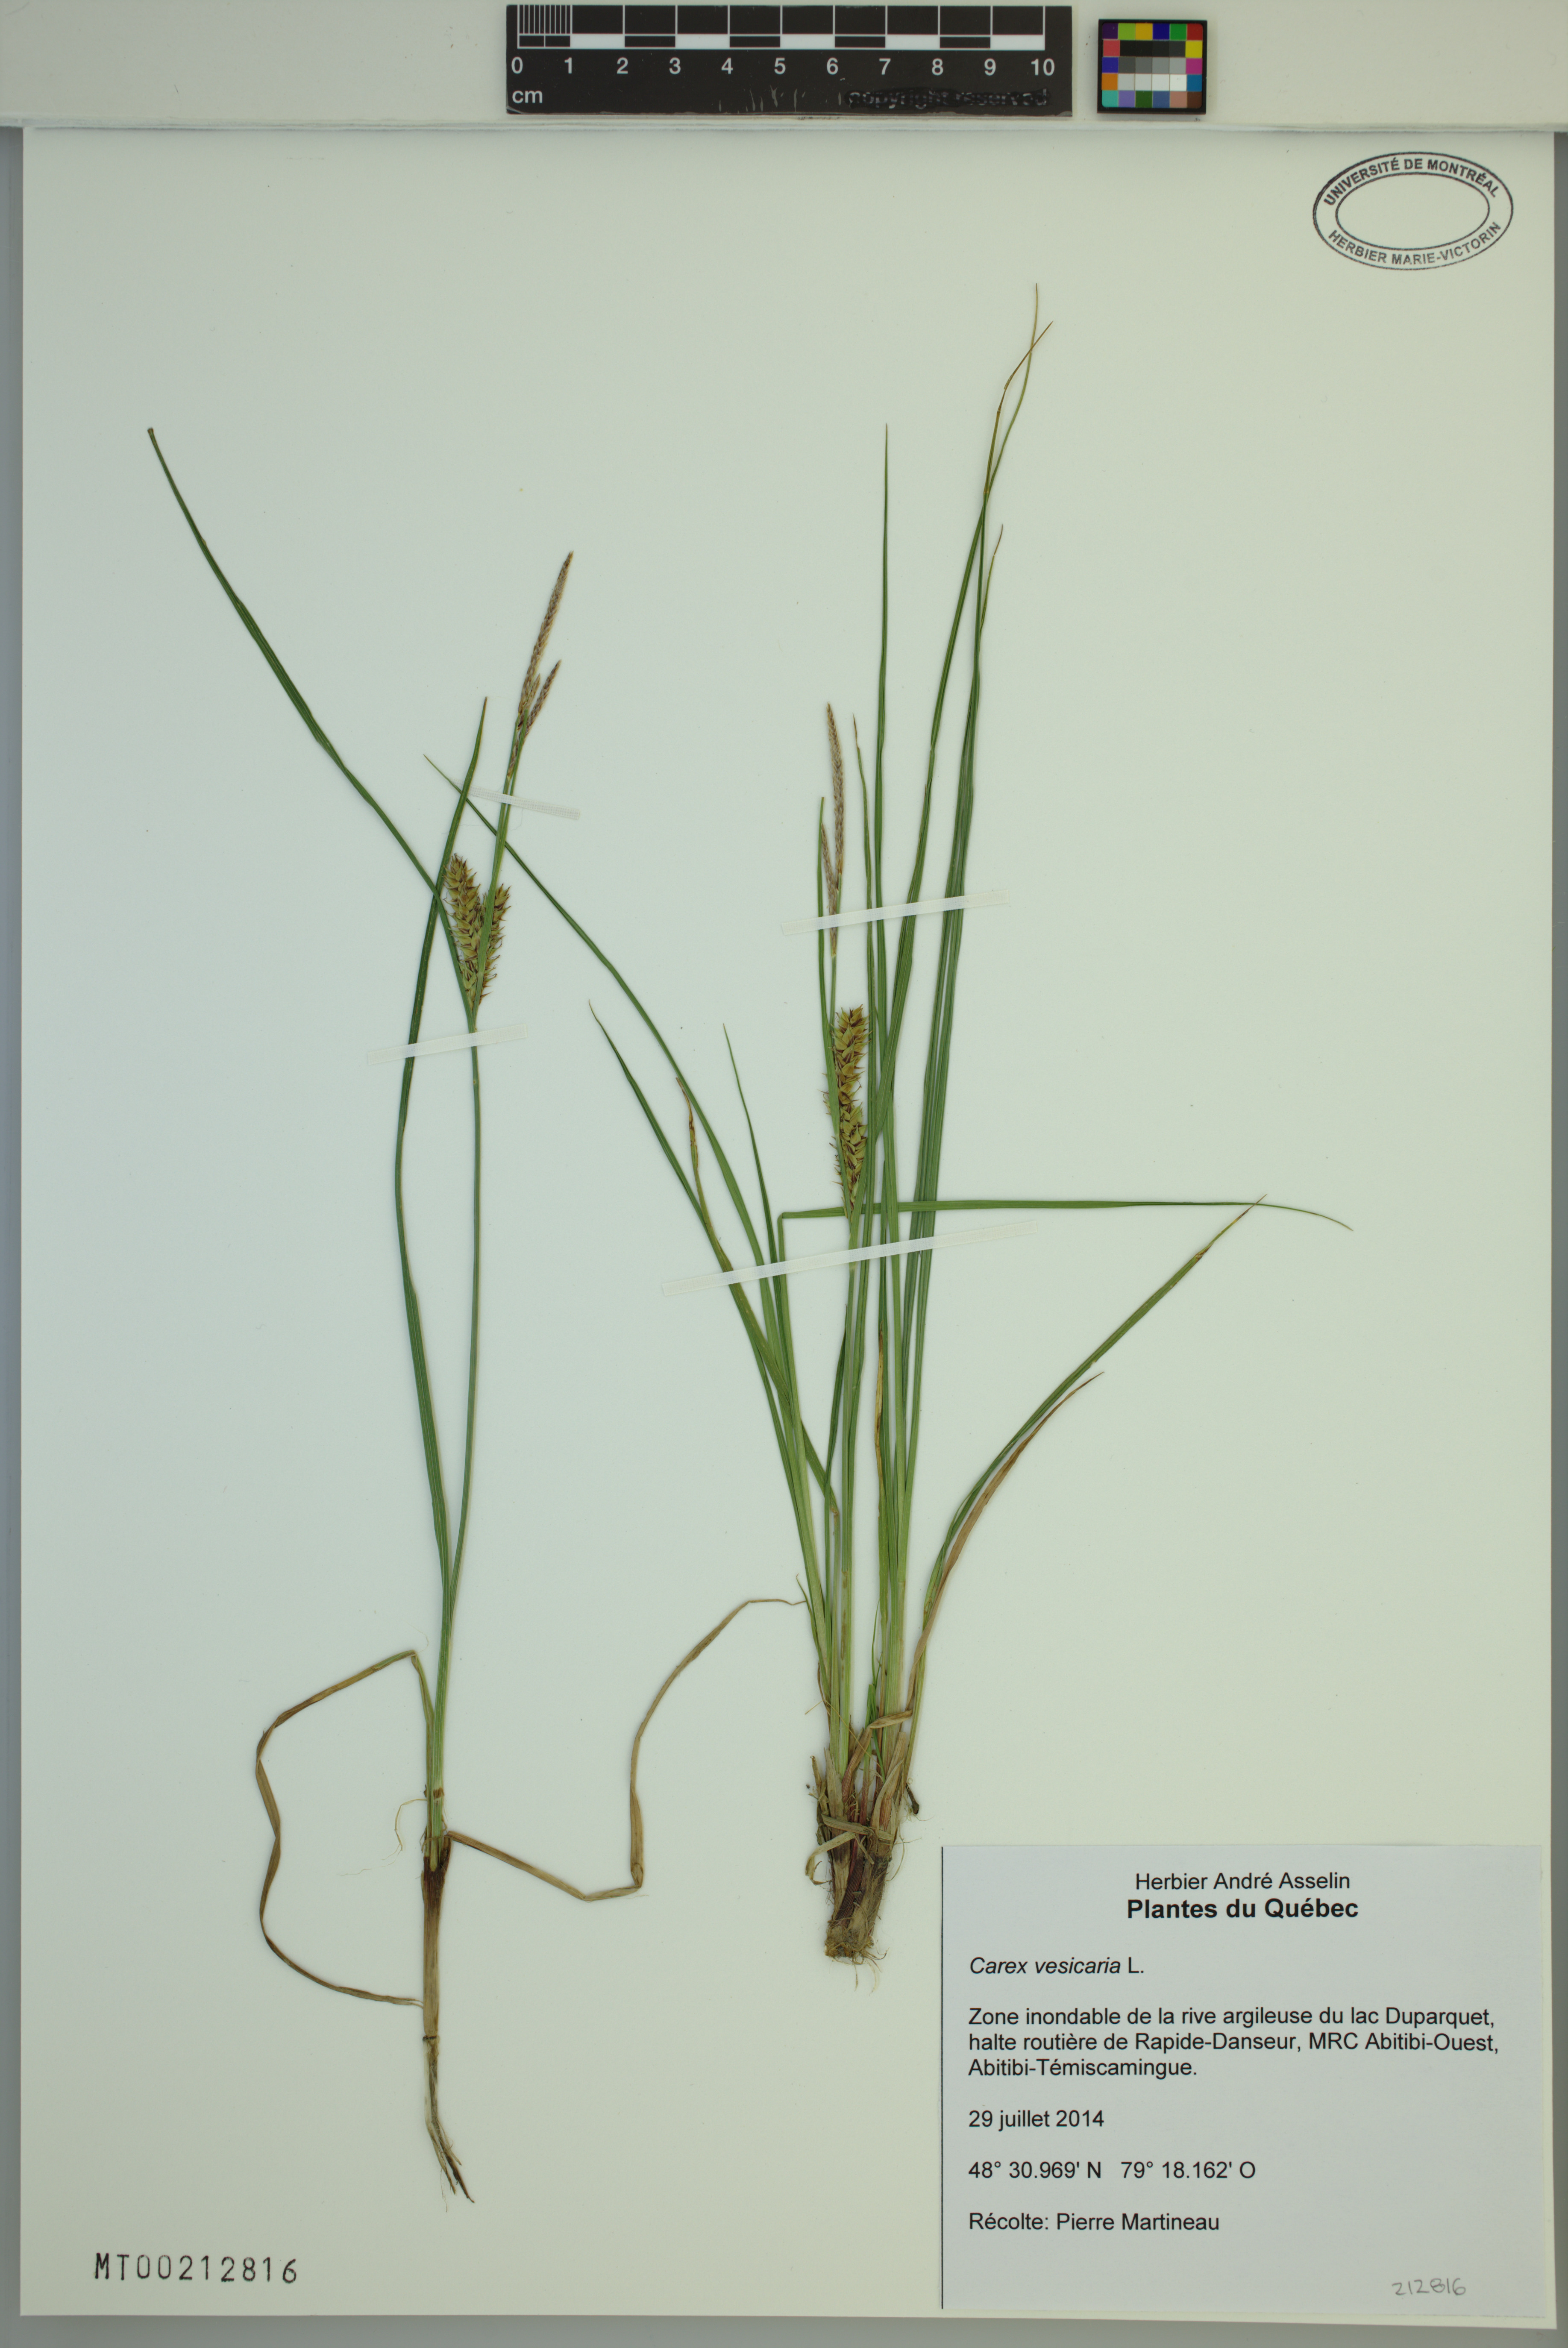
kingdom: Plantae
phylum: Tracheophyta
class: Liliopsida
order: Poales
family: Cyperaceae
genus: Carex
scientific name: Carex vesicaria
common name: Bladder-sedge
